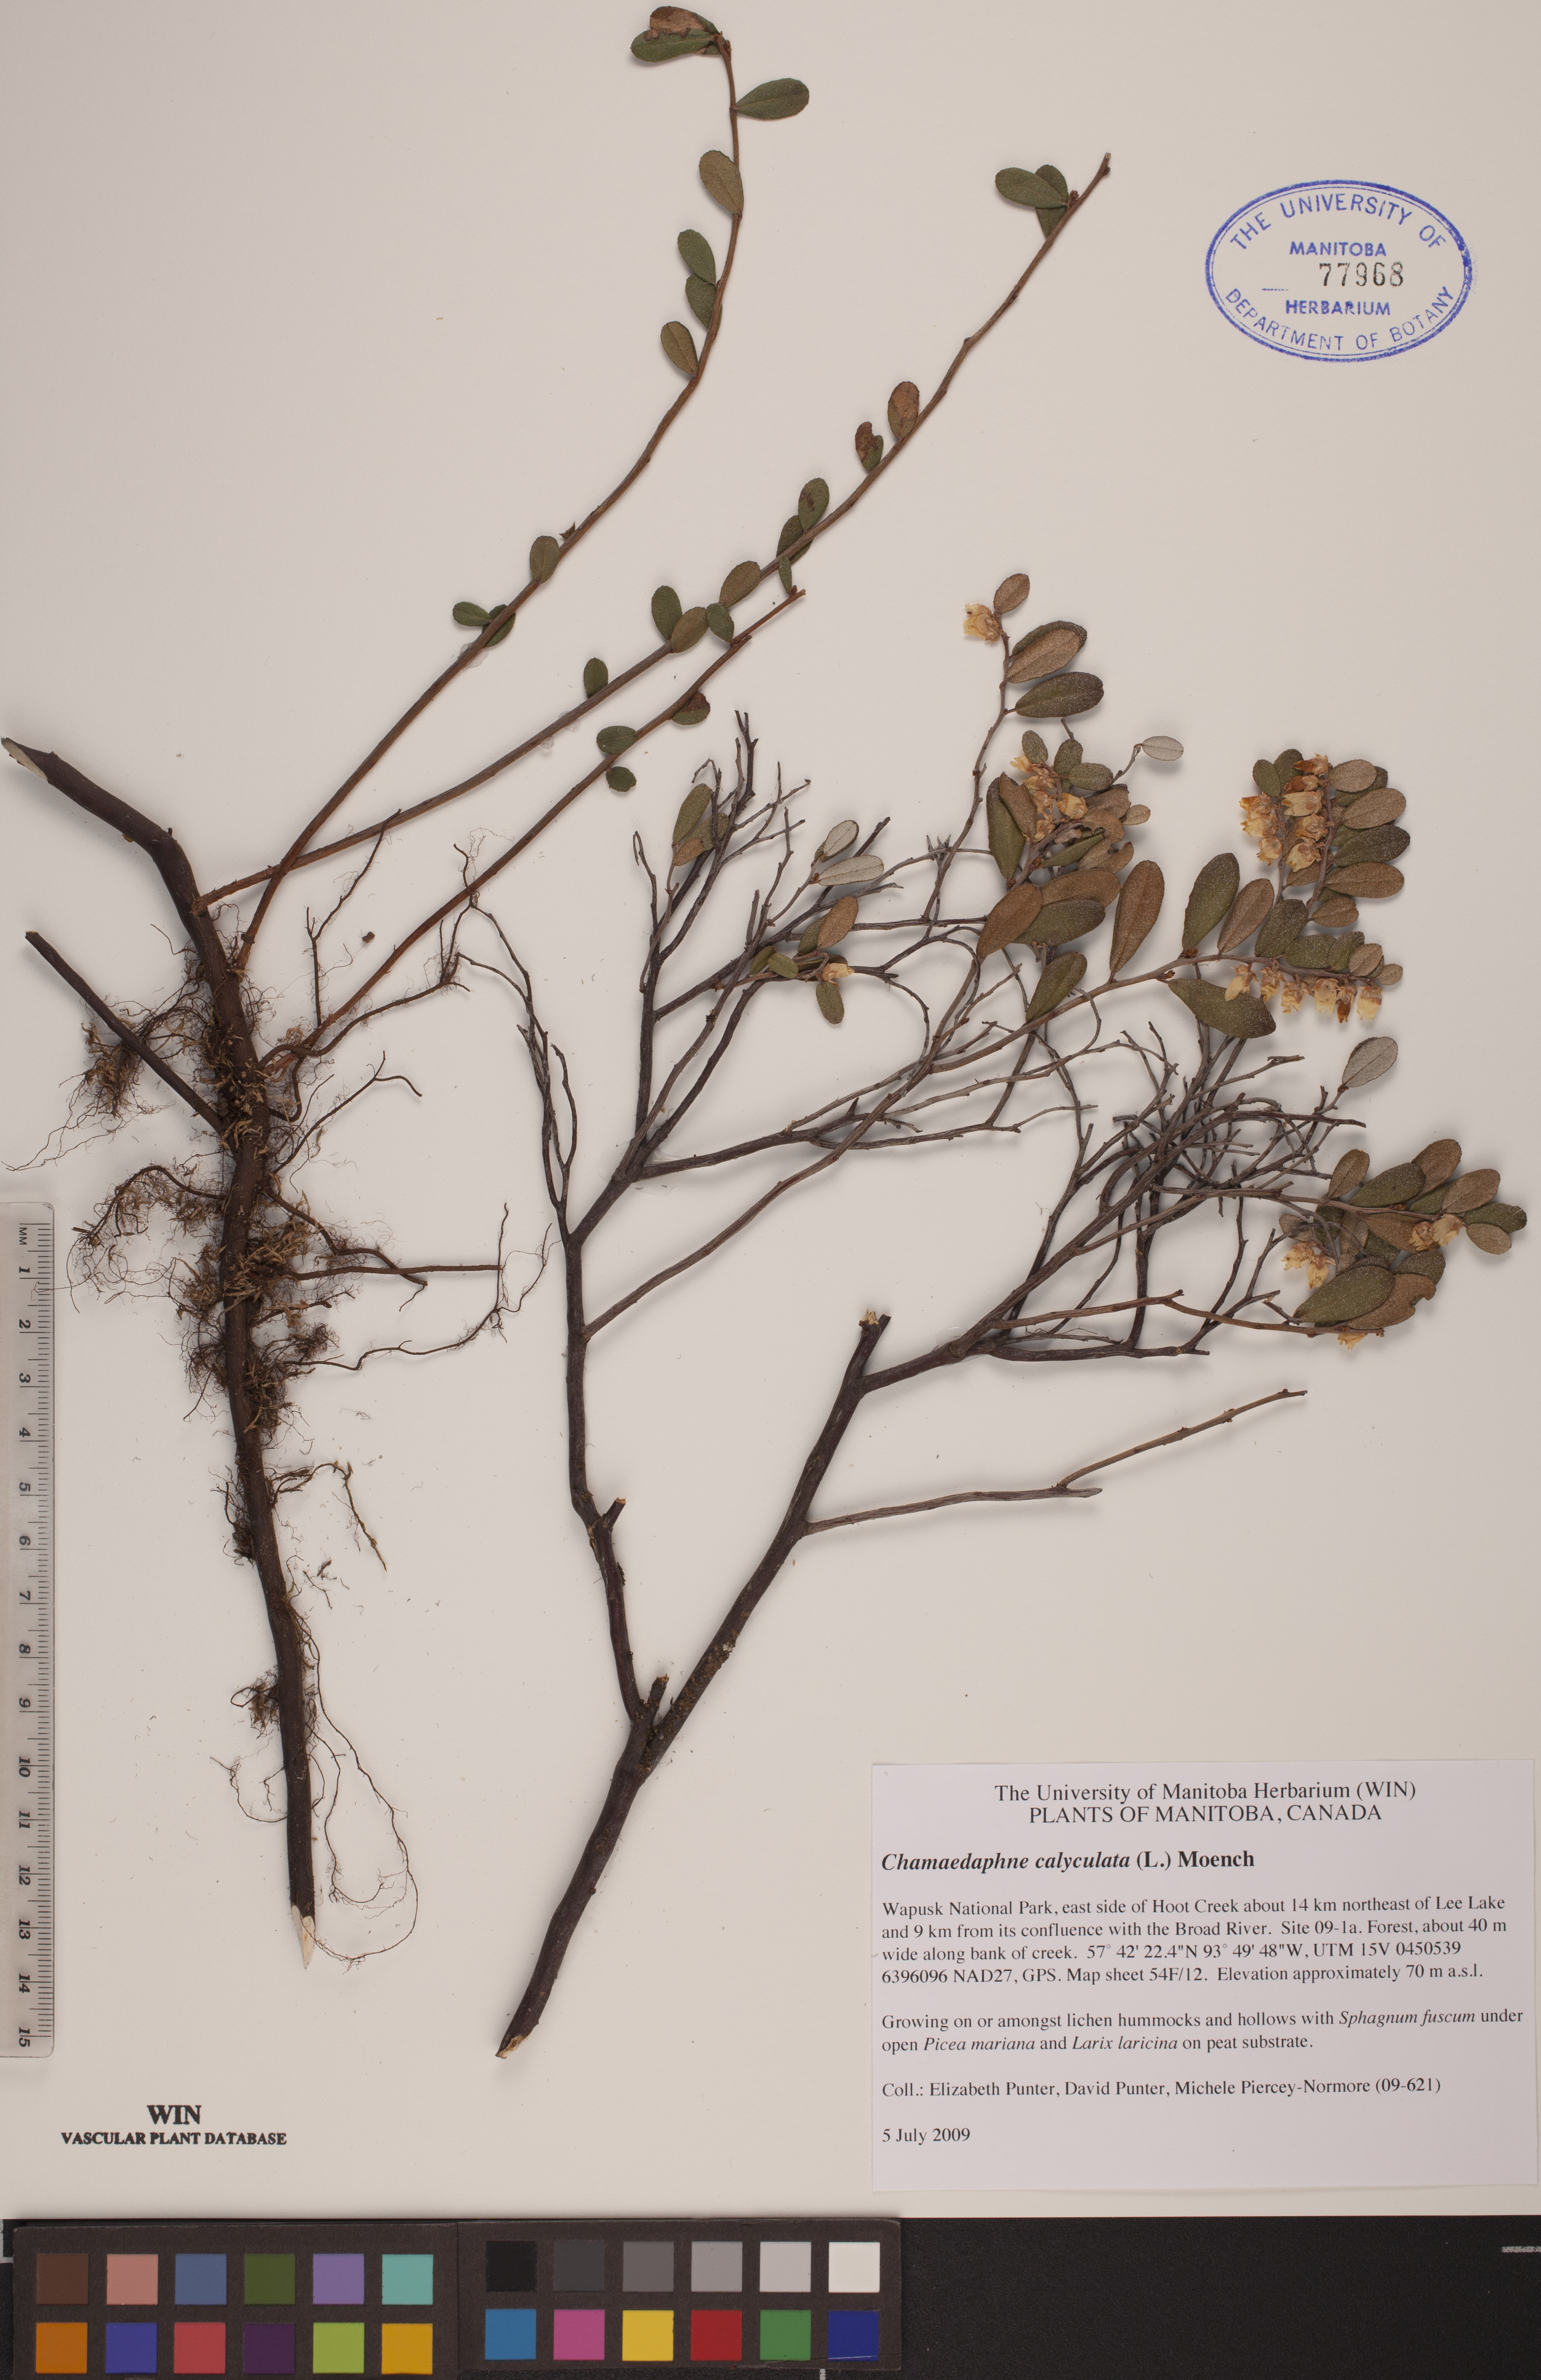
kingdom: Plantae
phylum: Tracheophyta
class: Magnoliopsida
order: Ericales
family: Ericaceae
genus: Chamaedaphne
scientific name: Chamaedaphne calyculata
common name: Leatherleaf
